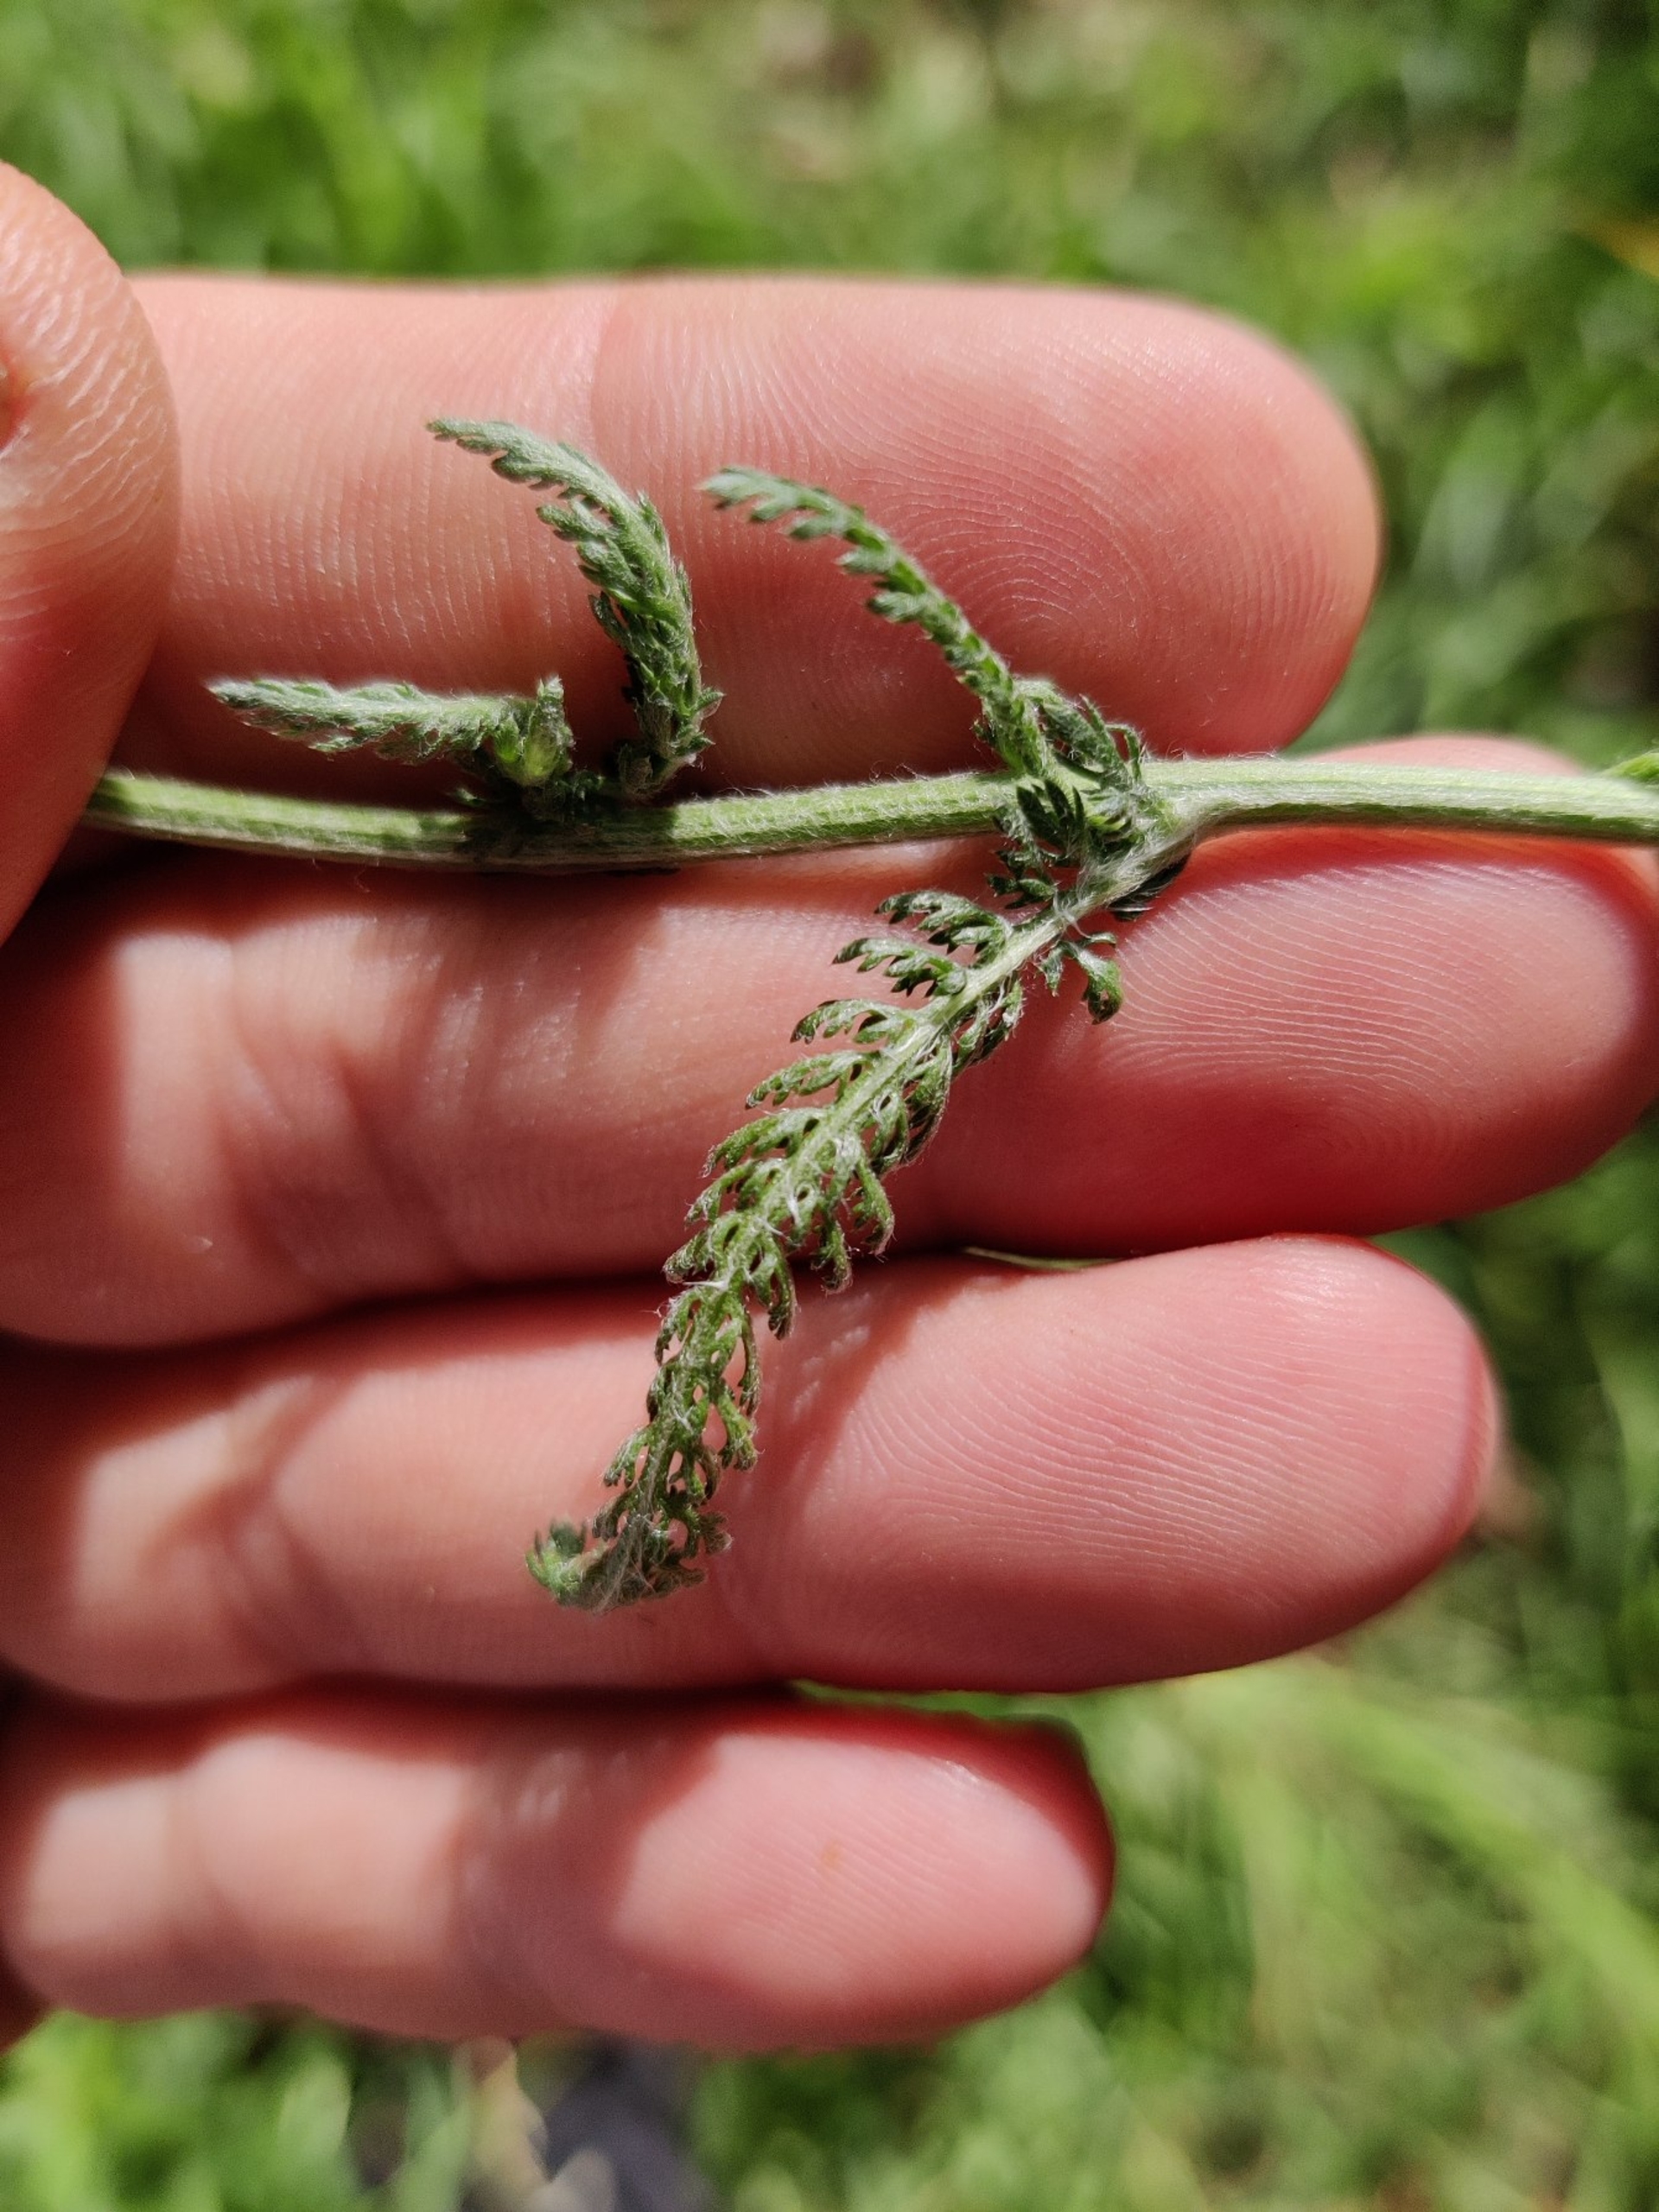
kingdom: Plantae
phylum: Tracheophyta
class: Magnoliopsida
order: Asterales
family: Asteraceae
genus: Achillea
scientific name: Achillea millefolium
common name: Almindelig røllike
